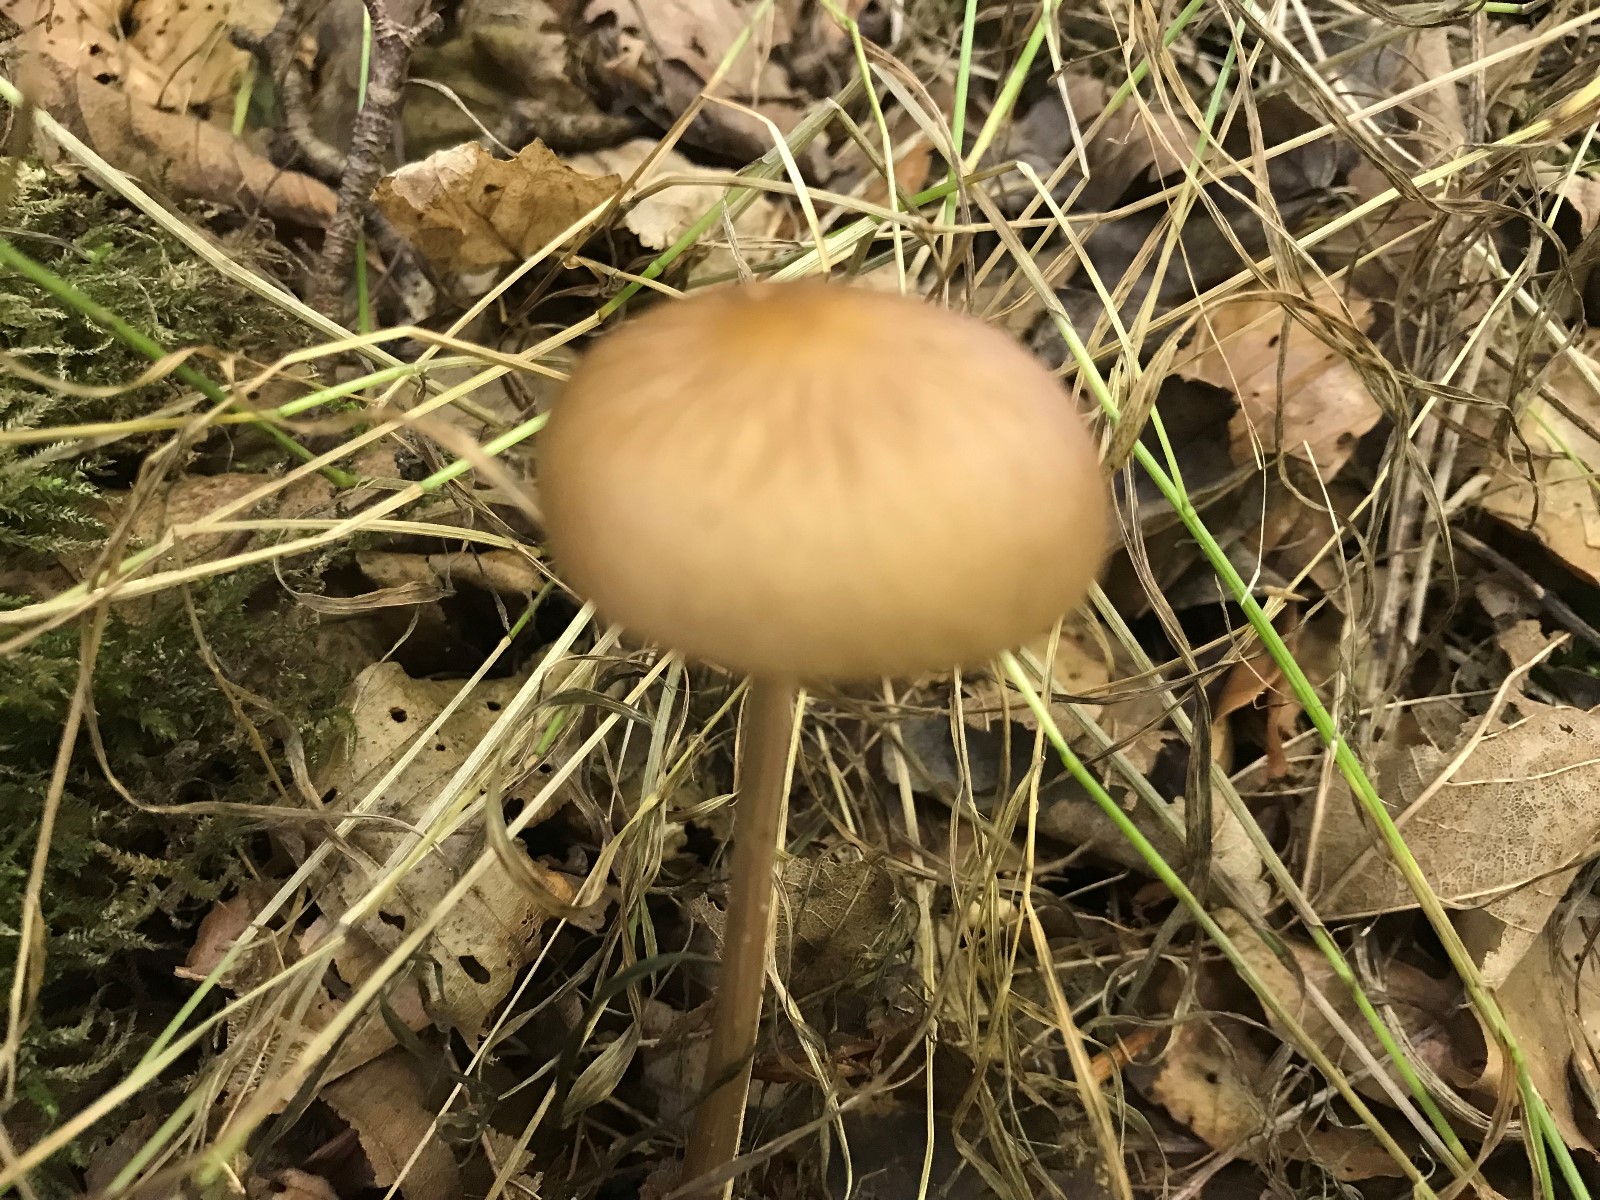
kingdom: Fungi
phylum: Basidiomycota
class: Agaricomycetes
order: Agaricales
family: Physalacriaceae
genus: Hymenopellis
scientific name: Hymenopellis radicata
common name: almindelig pælerodshat
